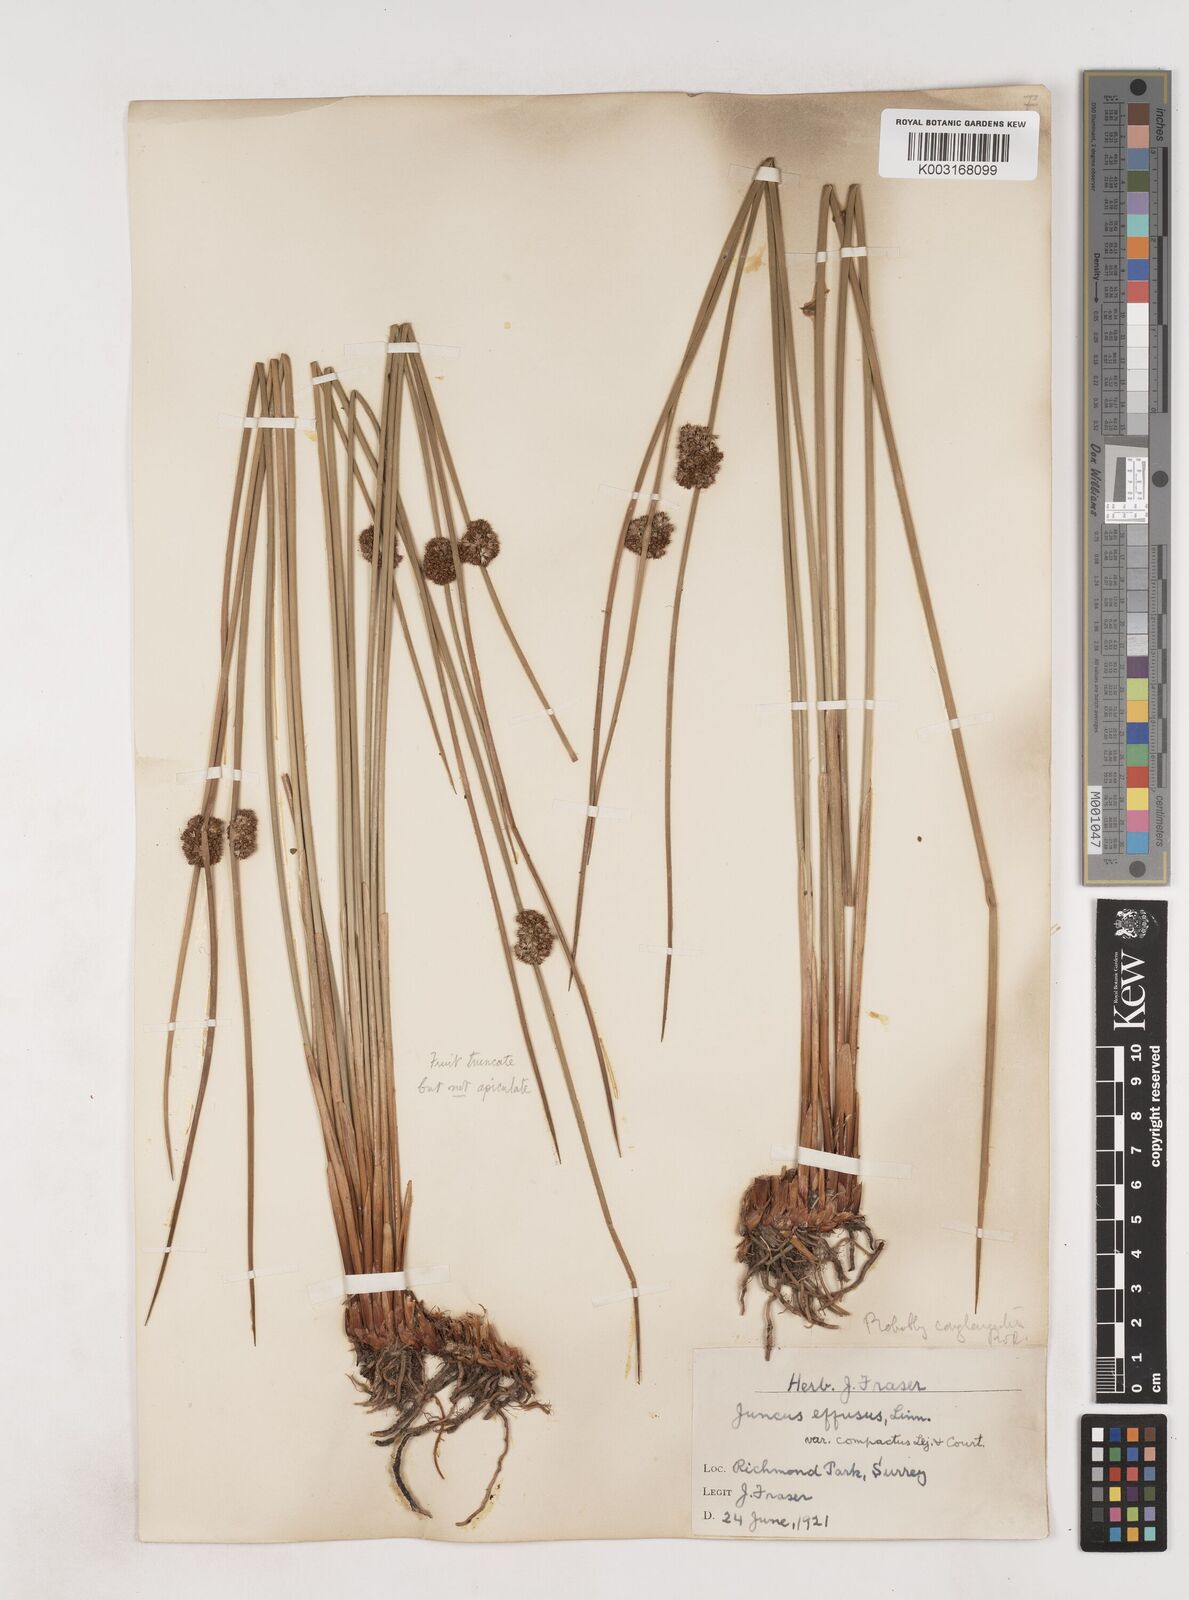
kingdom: Plantae
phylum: Tracheophyta
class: Liliopsida
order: Poales
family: Juncaceae
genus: Juncus
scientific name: Juncus conglomeratus
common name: Compact rush
